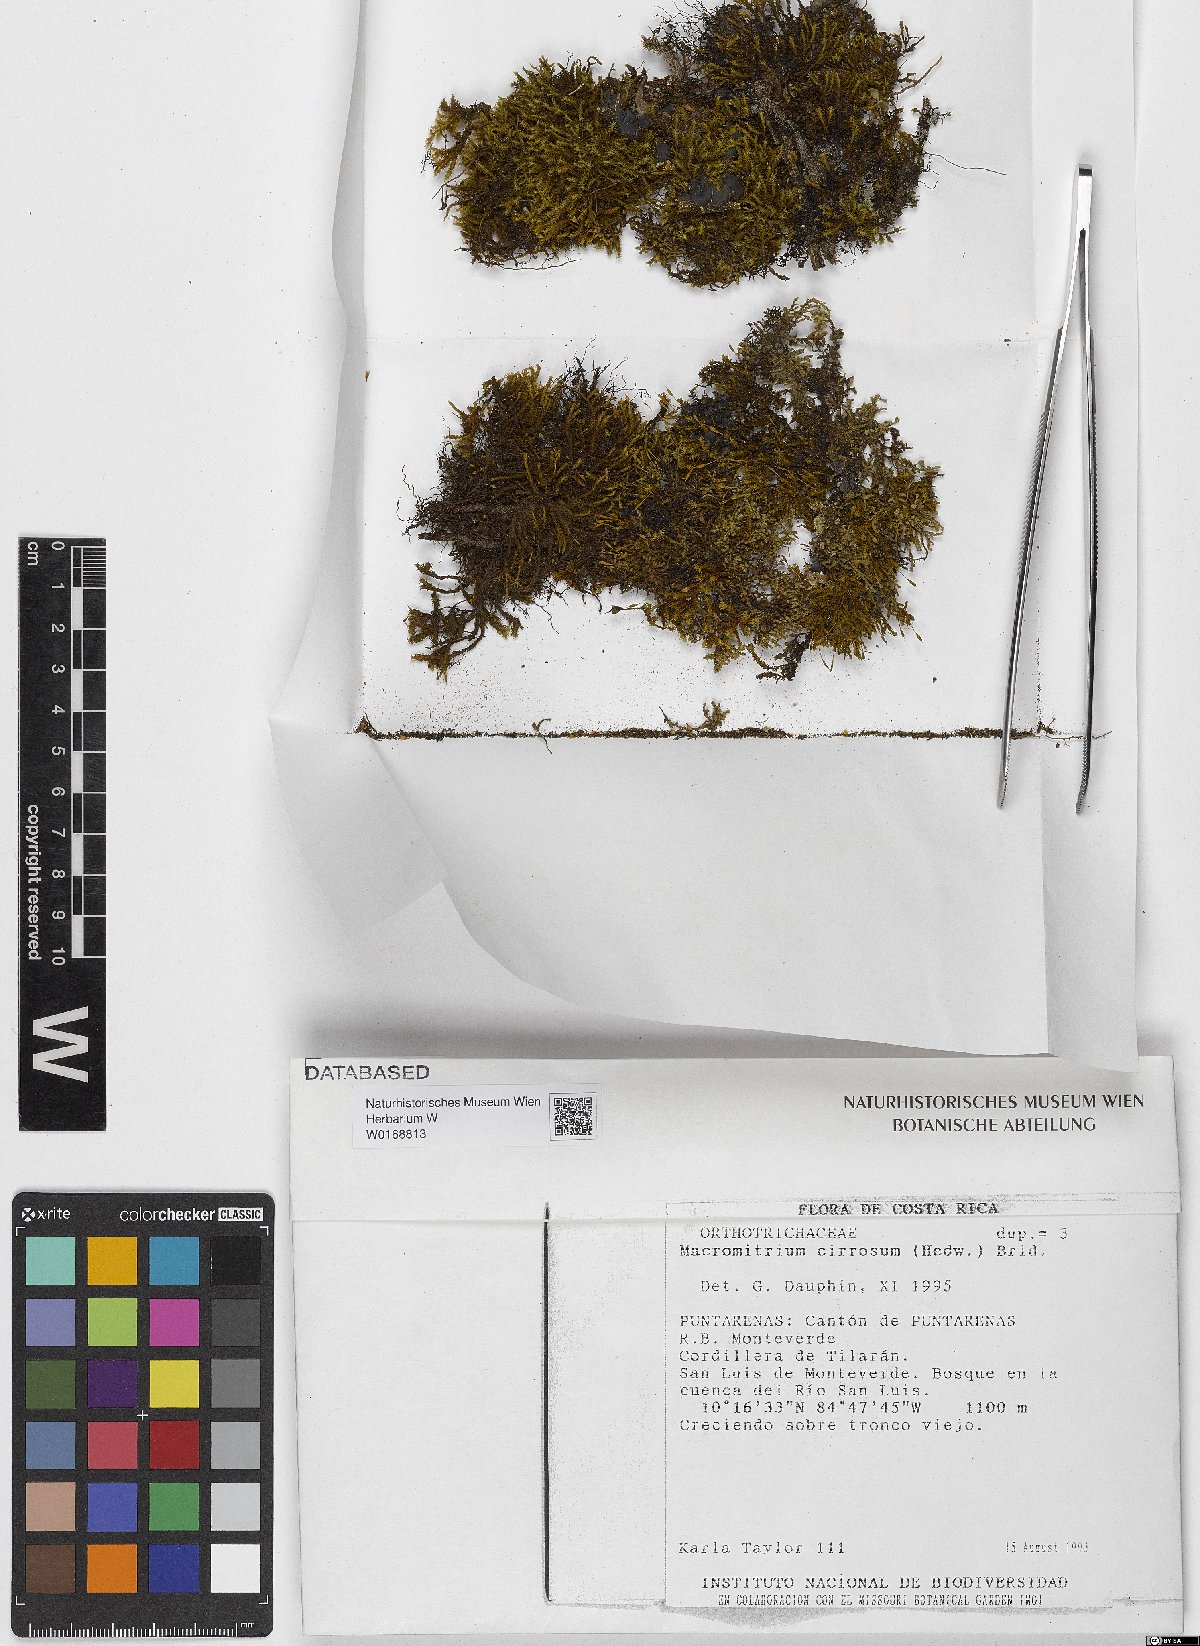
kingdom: Plantae
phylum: Bryophyta
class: Bryopsida
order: Orthotrichales
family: Orthotrichaceae
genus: Macromitrium
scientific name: Macromitrium cirrosum
